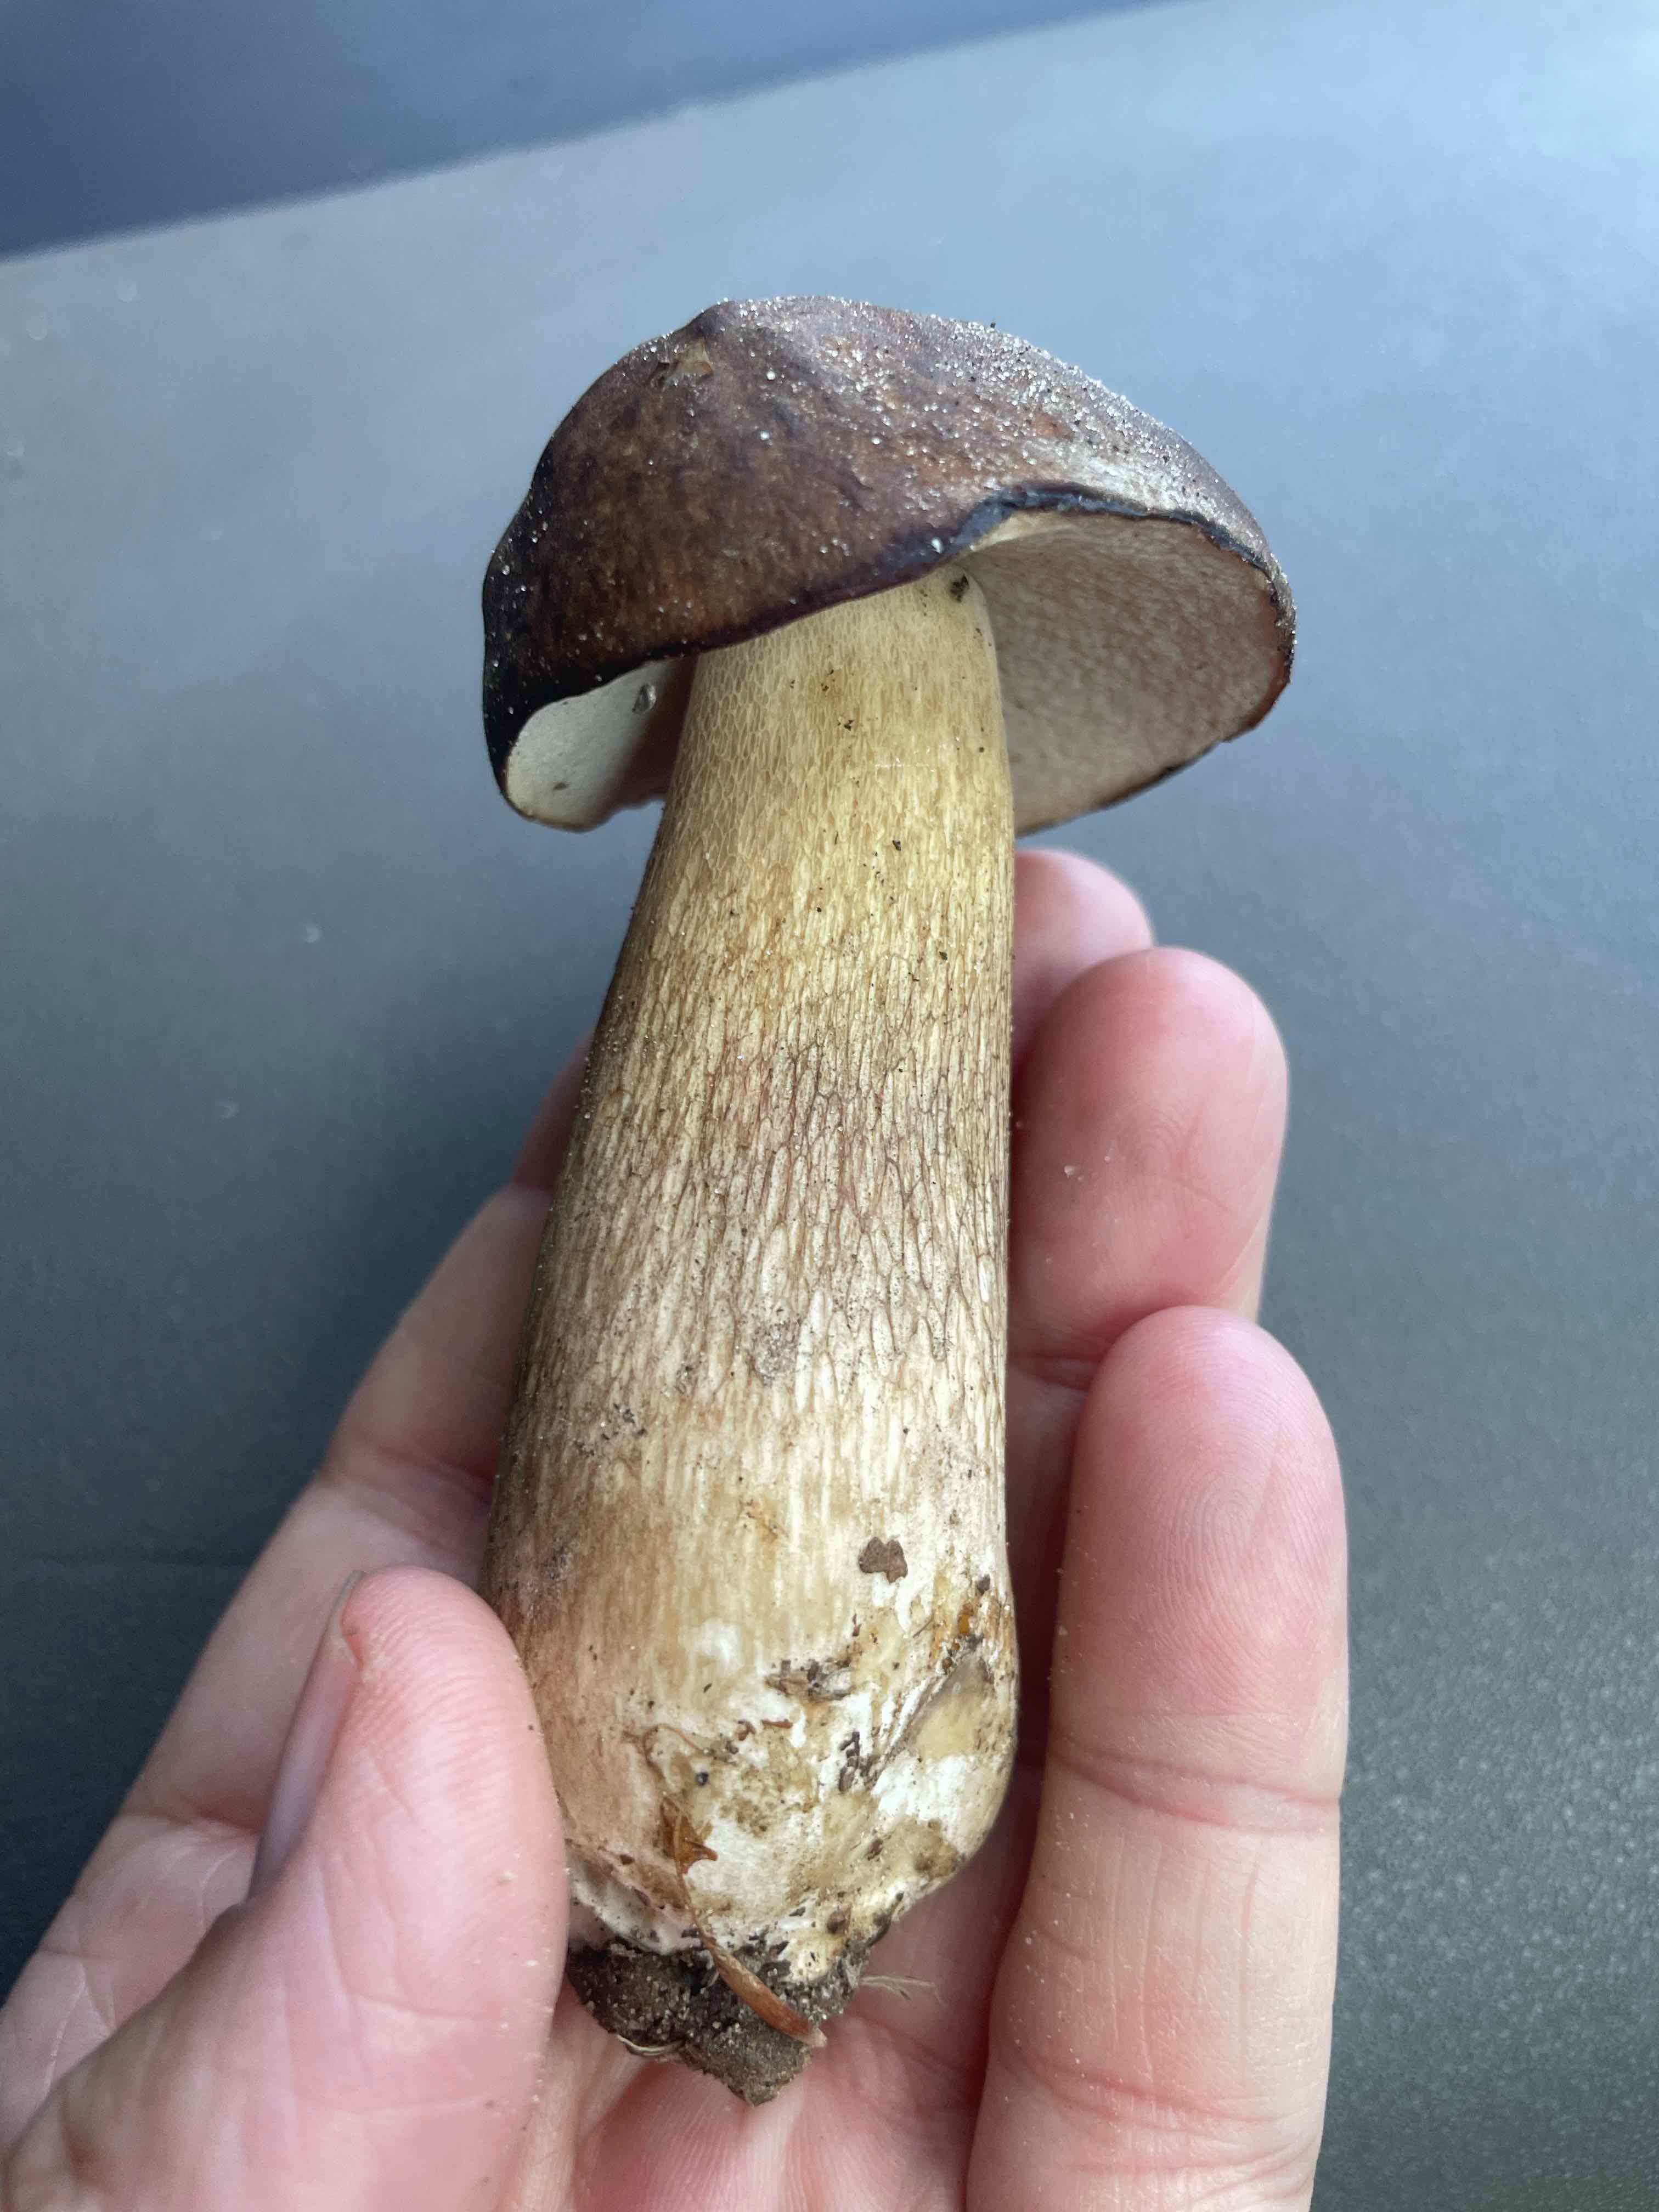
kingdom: Fungi
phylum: Basidiomycota
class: Agaricomycetes
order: Boletales
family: Boletaceae
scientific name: Boletaceae
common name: rørhatfamilien
